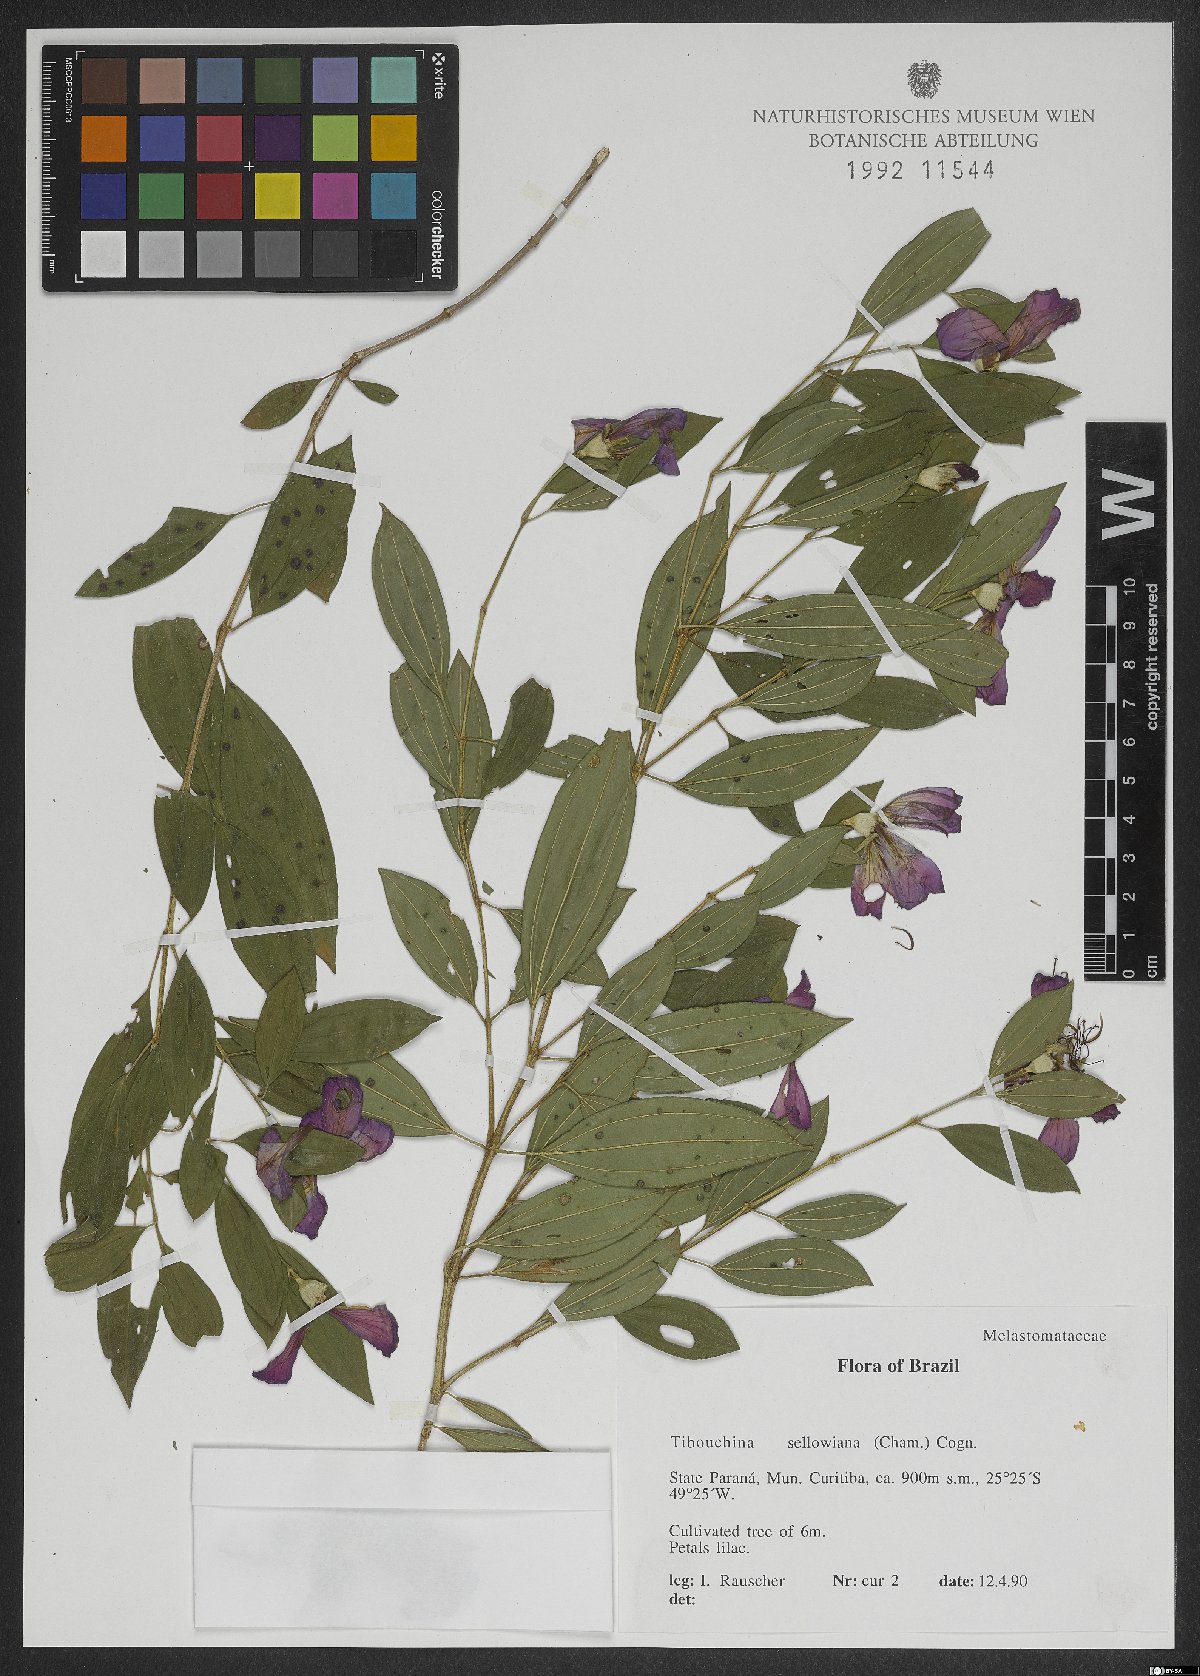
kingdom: Plantae
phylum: Tracheophyta
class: Magnoliopsida
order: Myrtales
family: Melastomataceae
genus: Pleroma
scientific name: Pleroma sellowianum
